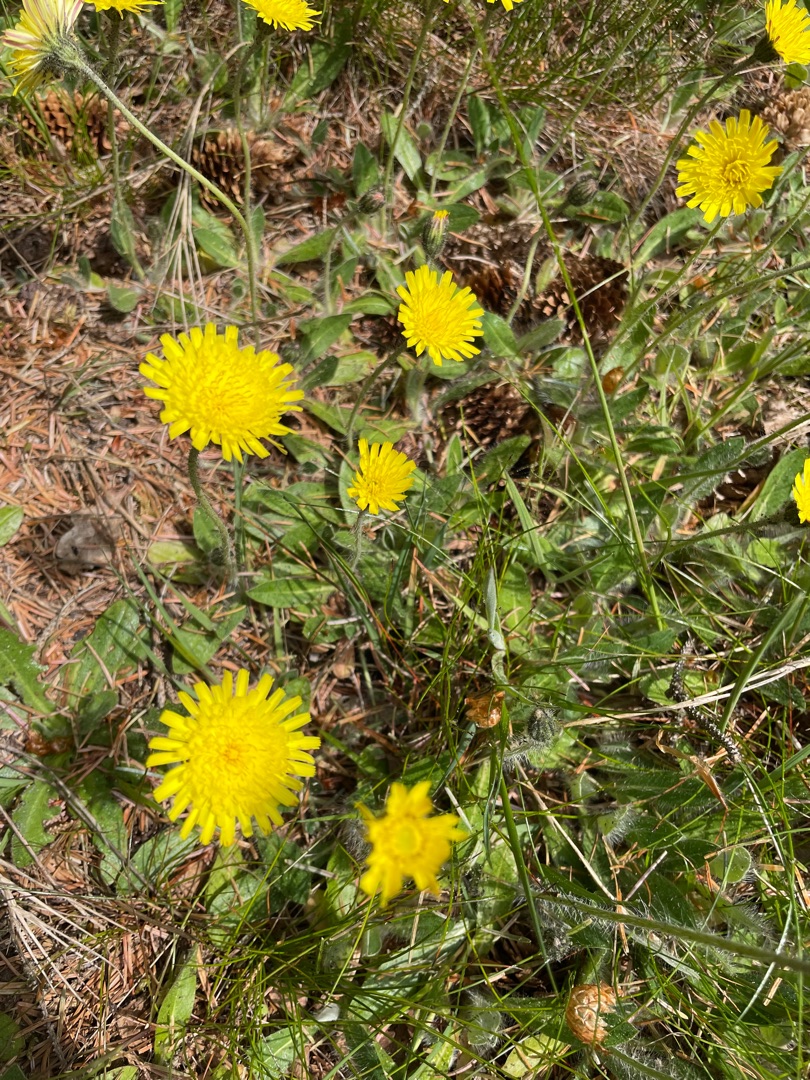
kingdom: Plantae
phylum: Tracheophyta
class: Magnoliopsida
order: Asterales
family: Asteraceae
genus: Pilosella
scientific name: Pilosella officinarum
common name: Håret høgeurt
